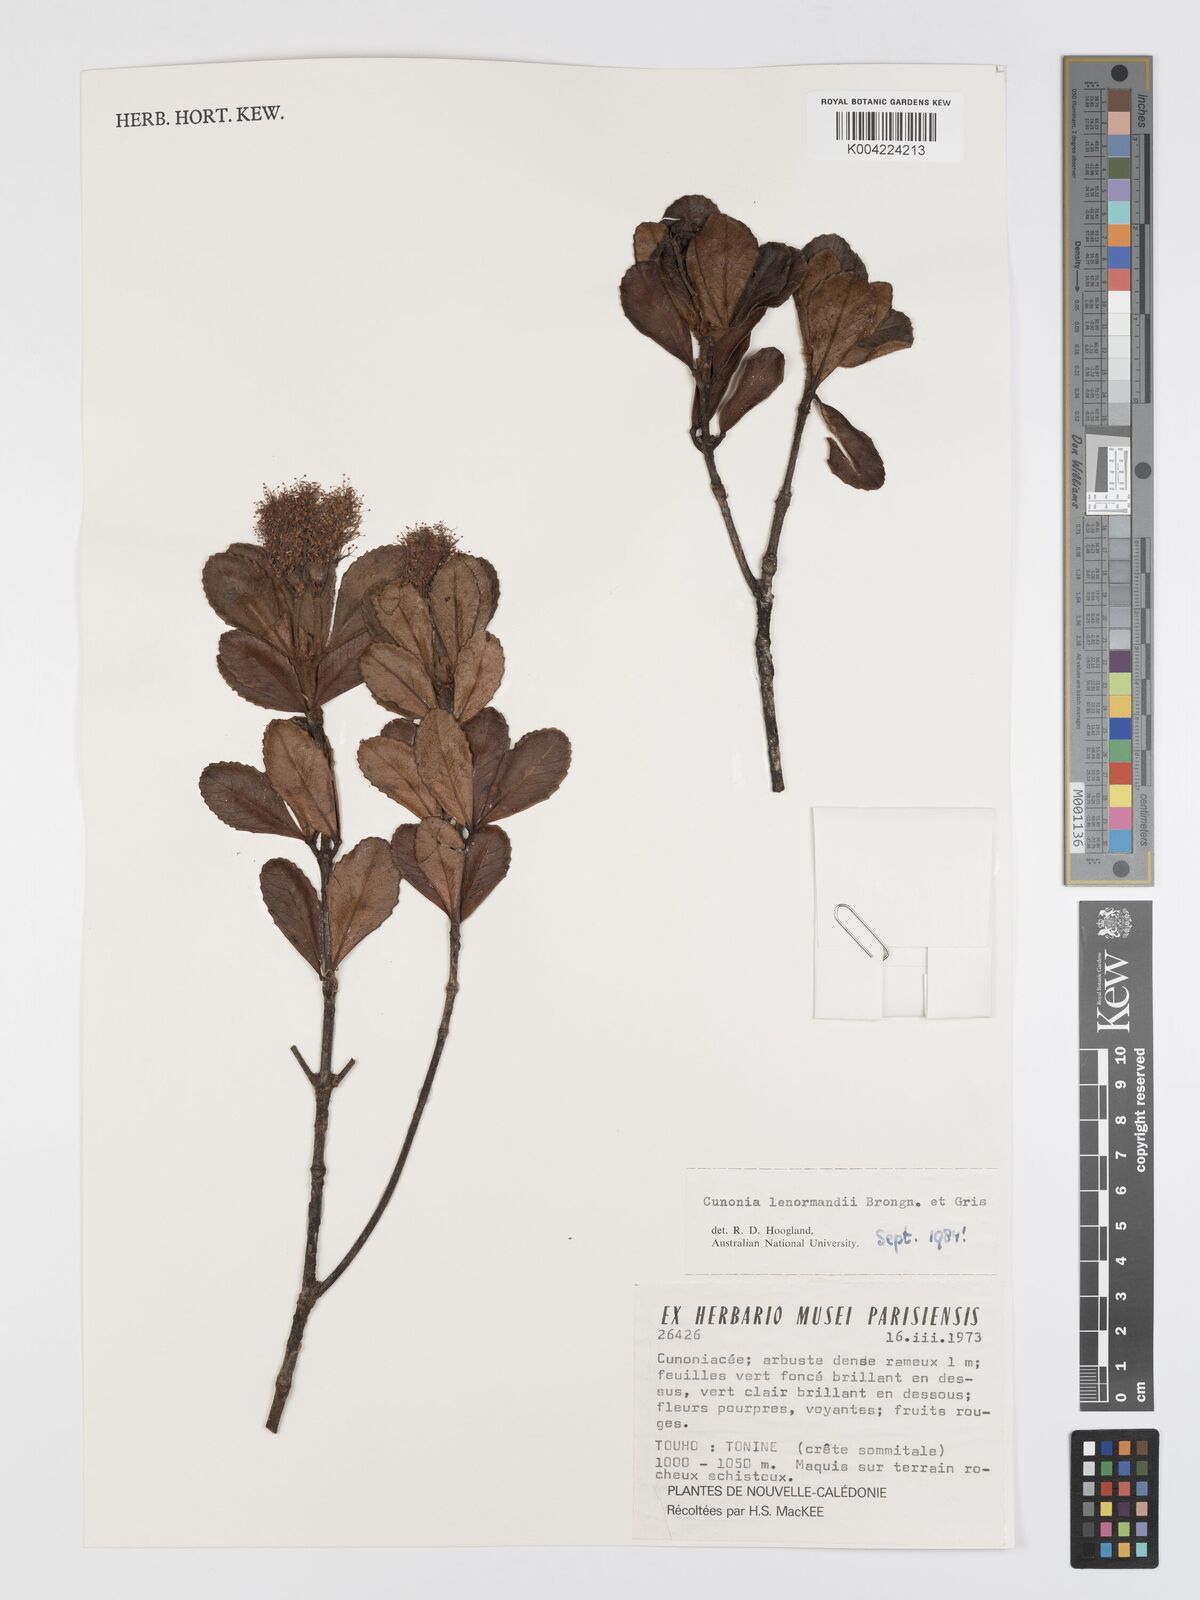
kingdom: Plantae
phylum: Tracheophyta
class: Magnoliopsida
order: Oxalidales
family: Cunoniaceae
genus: Cunonia
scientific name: Cunonia lenormandii
